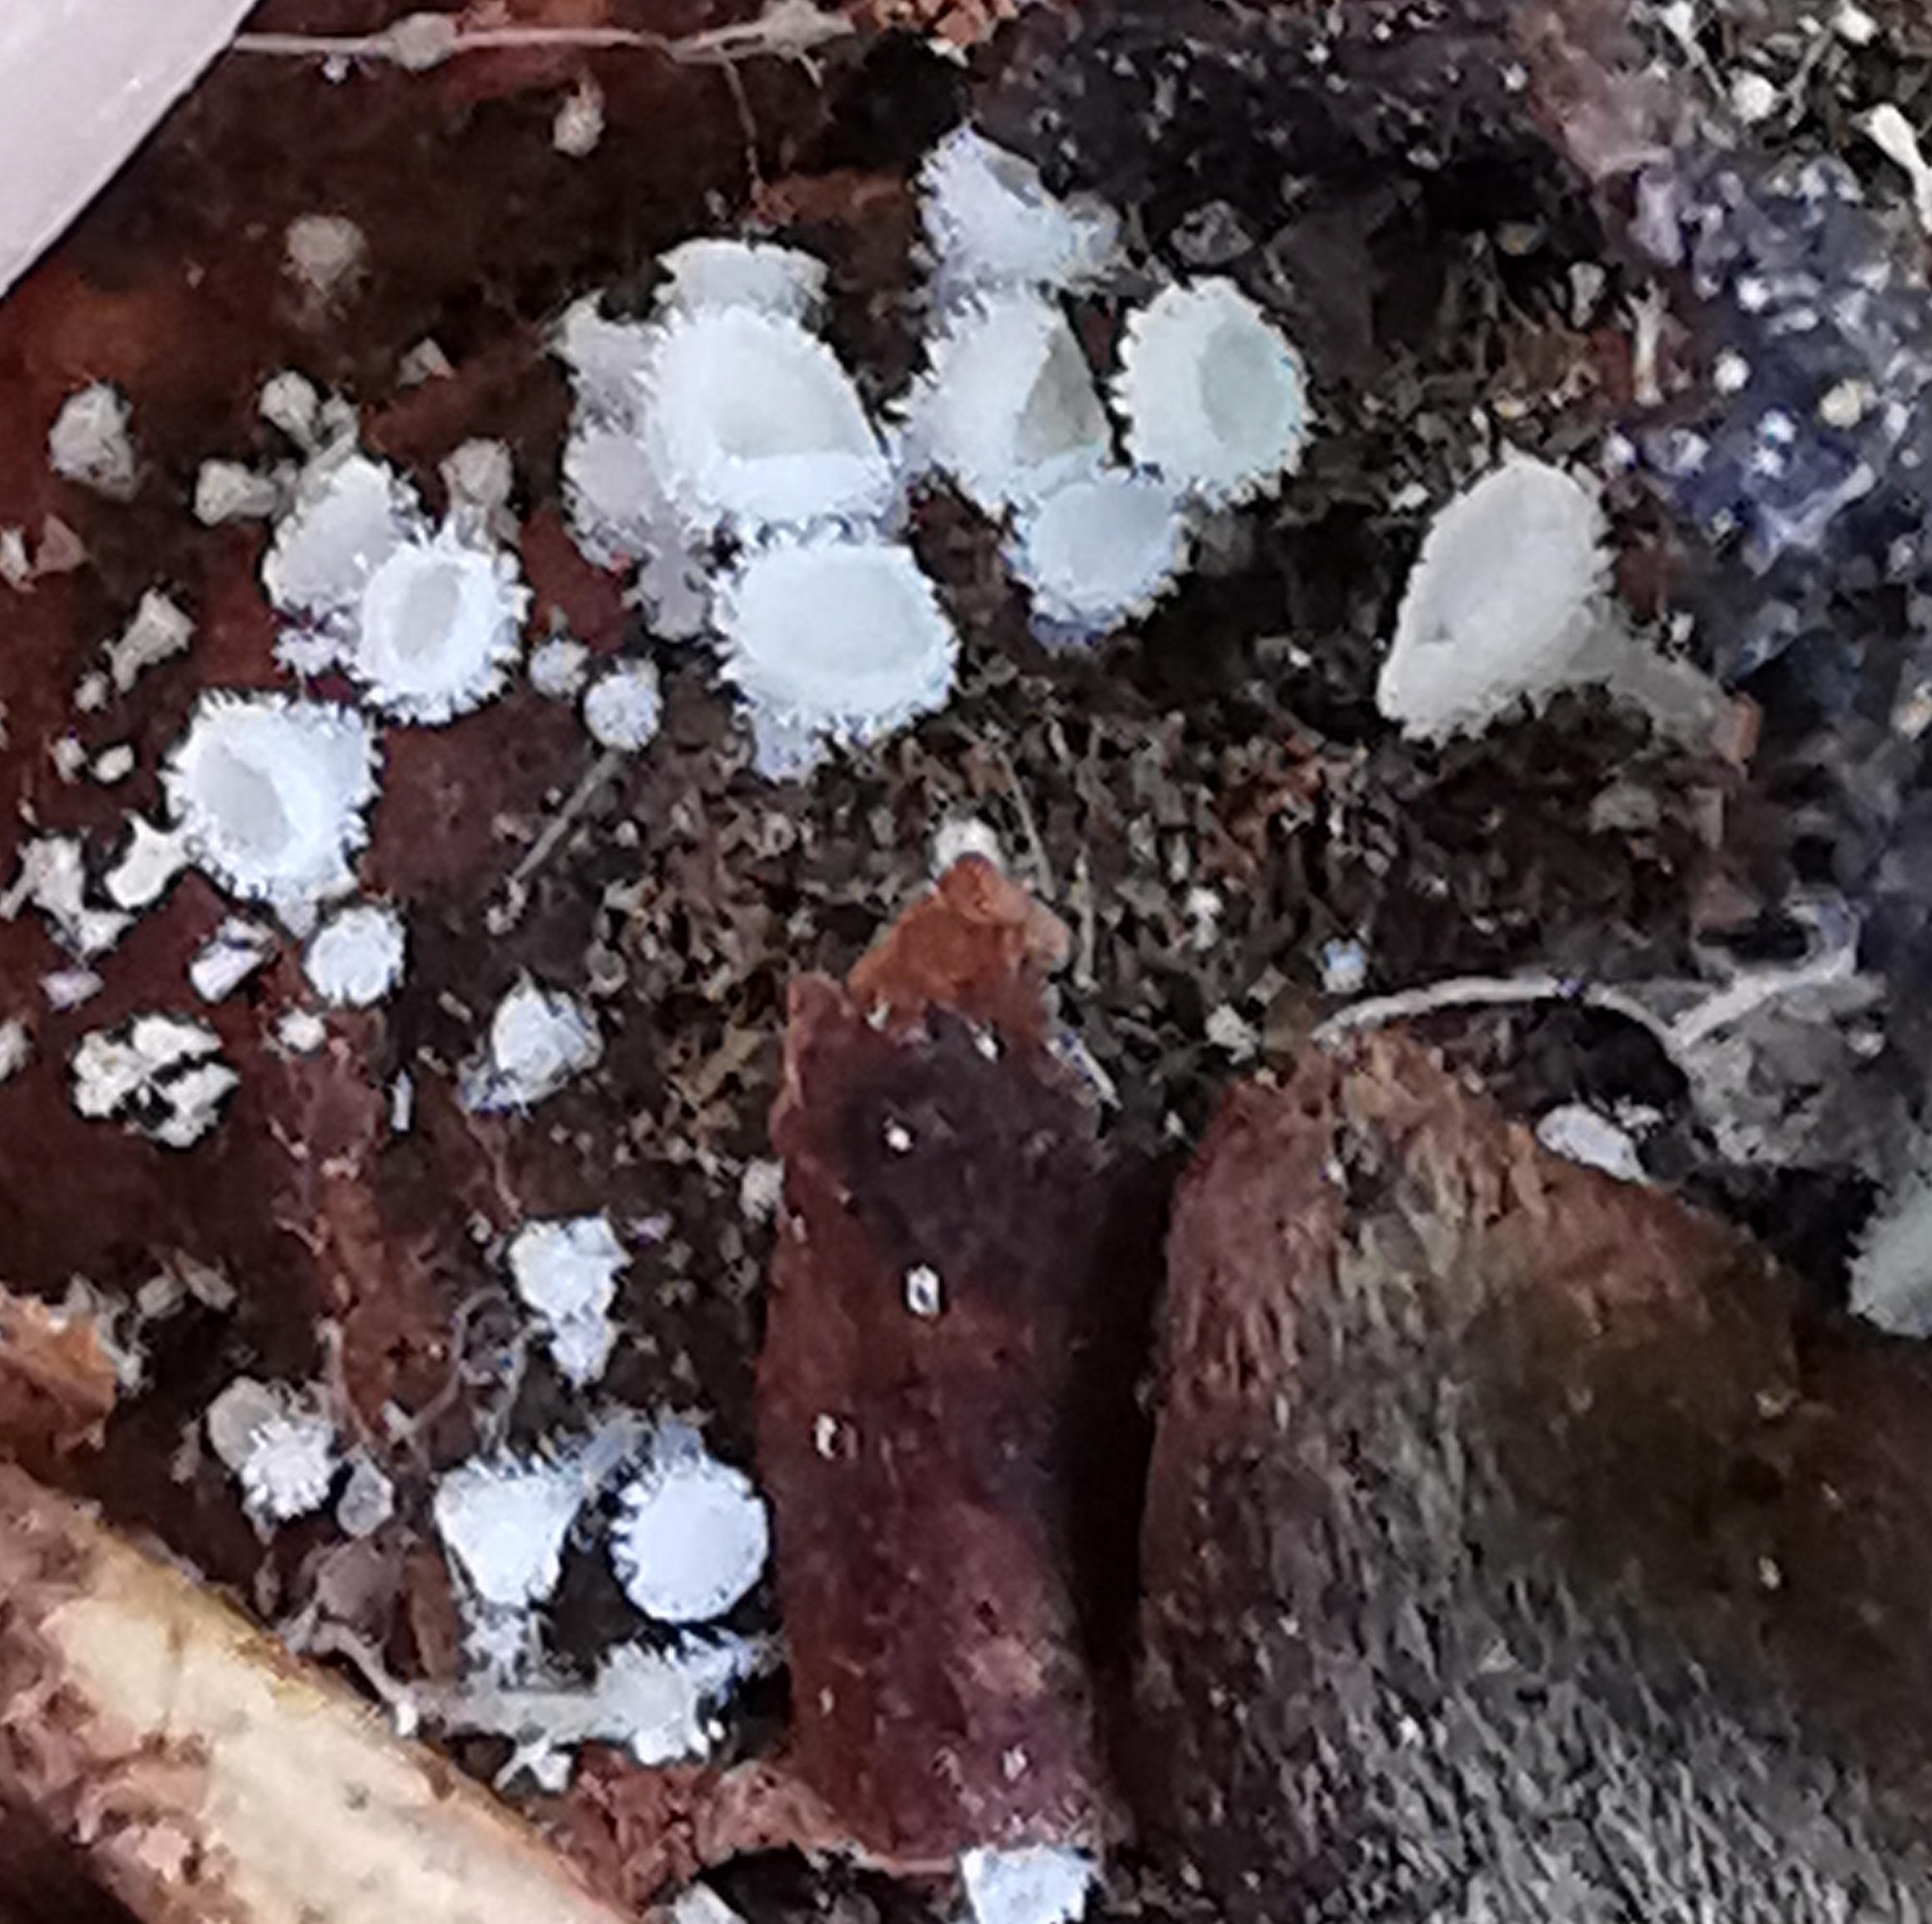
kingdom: Fungi
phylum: Ascomycota
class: Leotiomycetes
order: Helotiales
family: Lachnaceae
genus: Lachnum
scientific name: Lachnum virgineum
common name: jomfru-frynseskive
